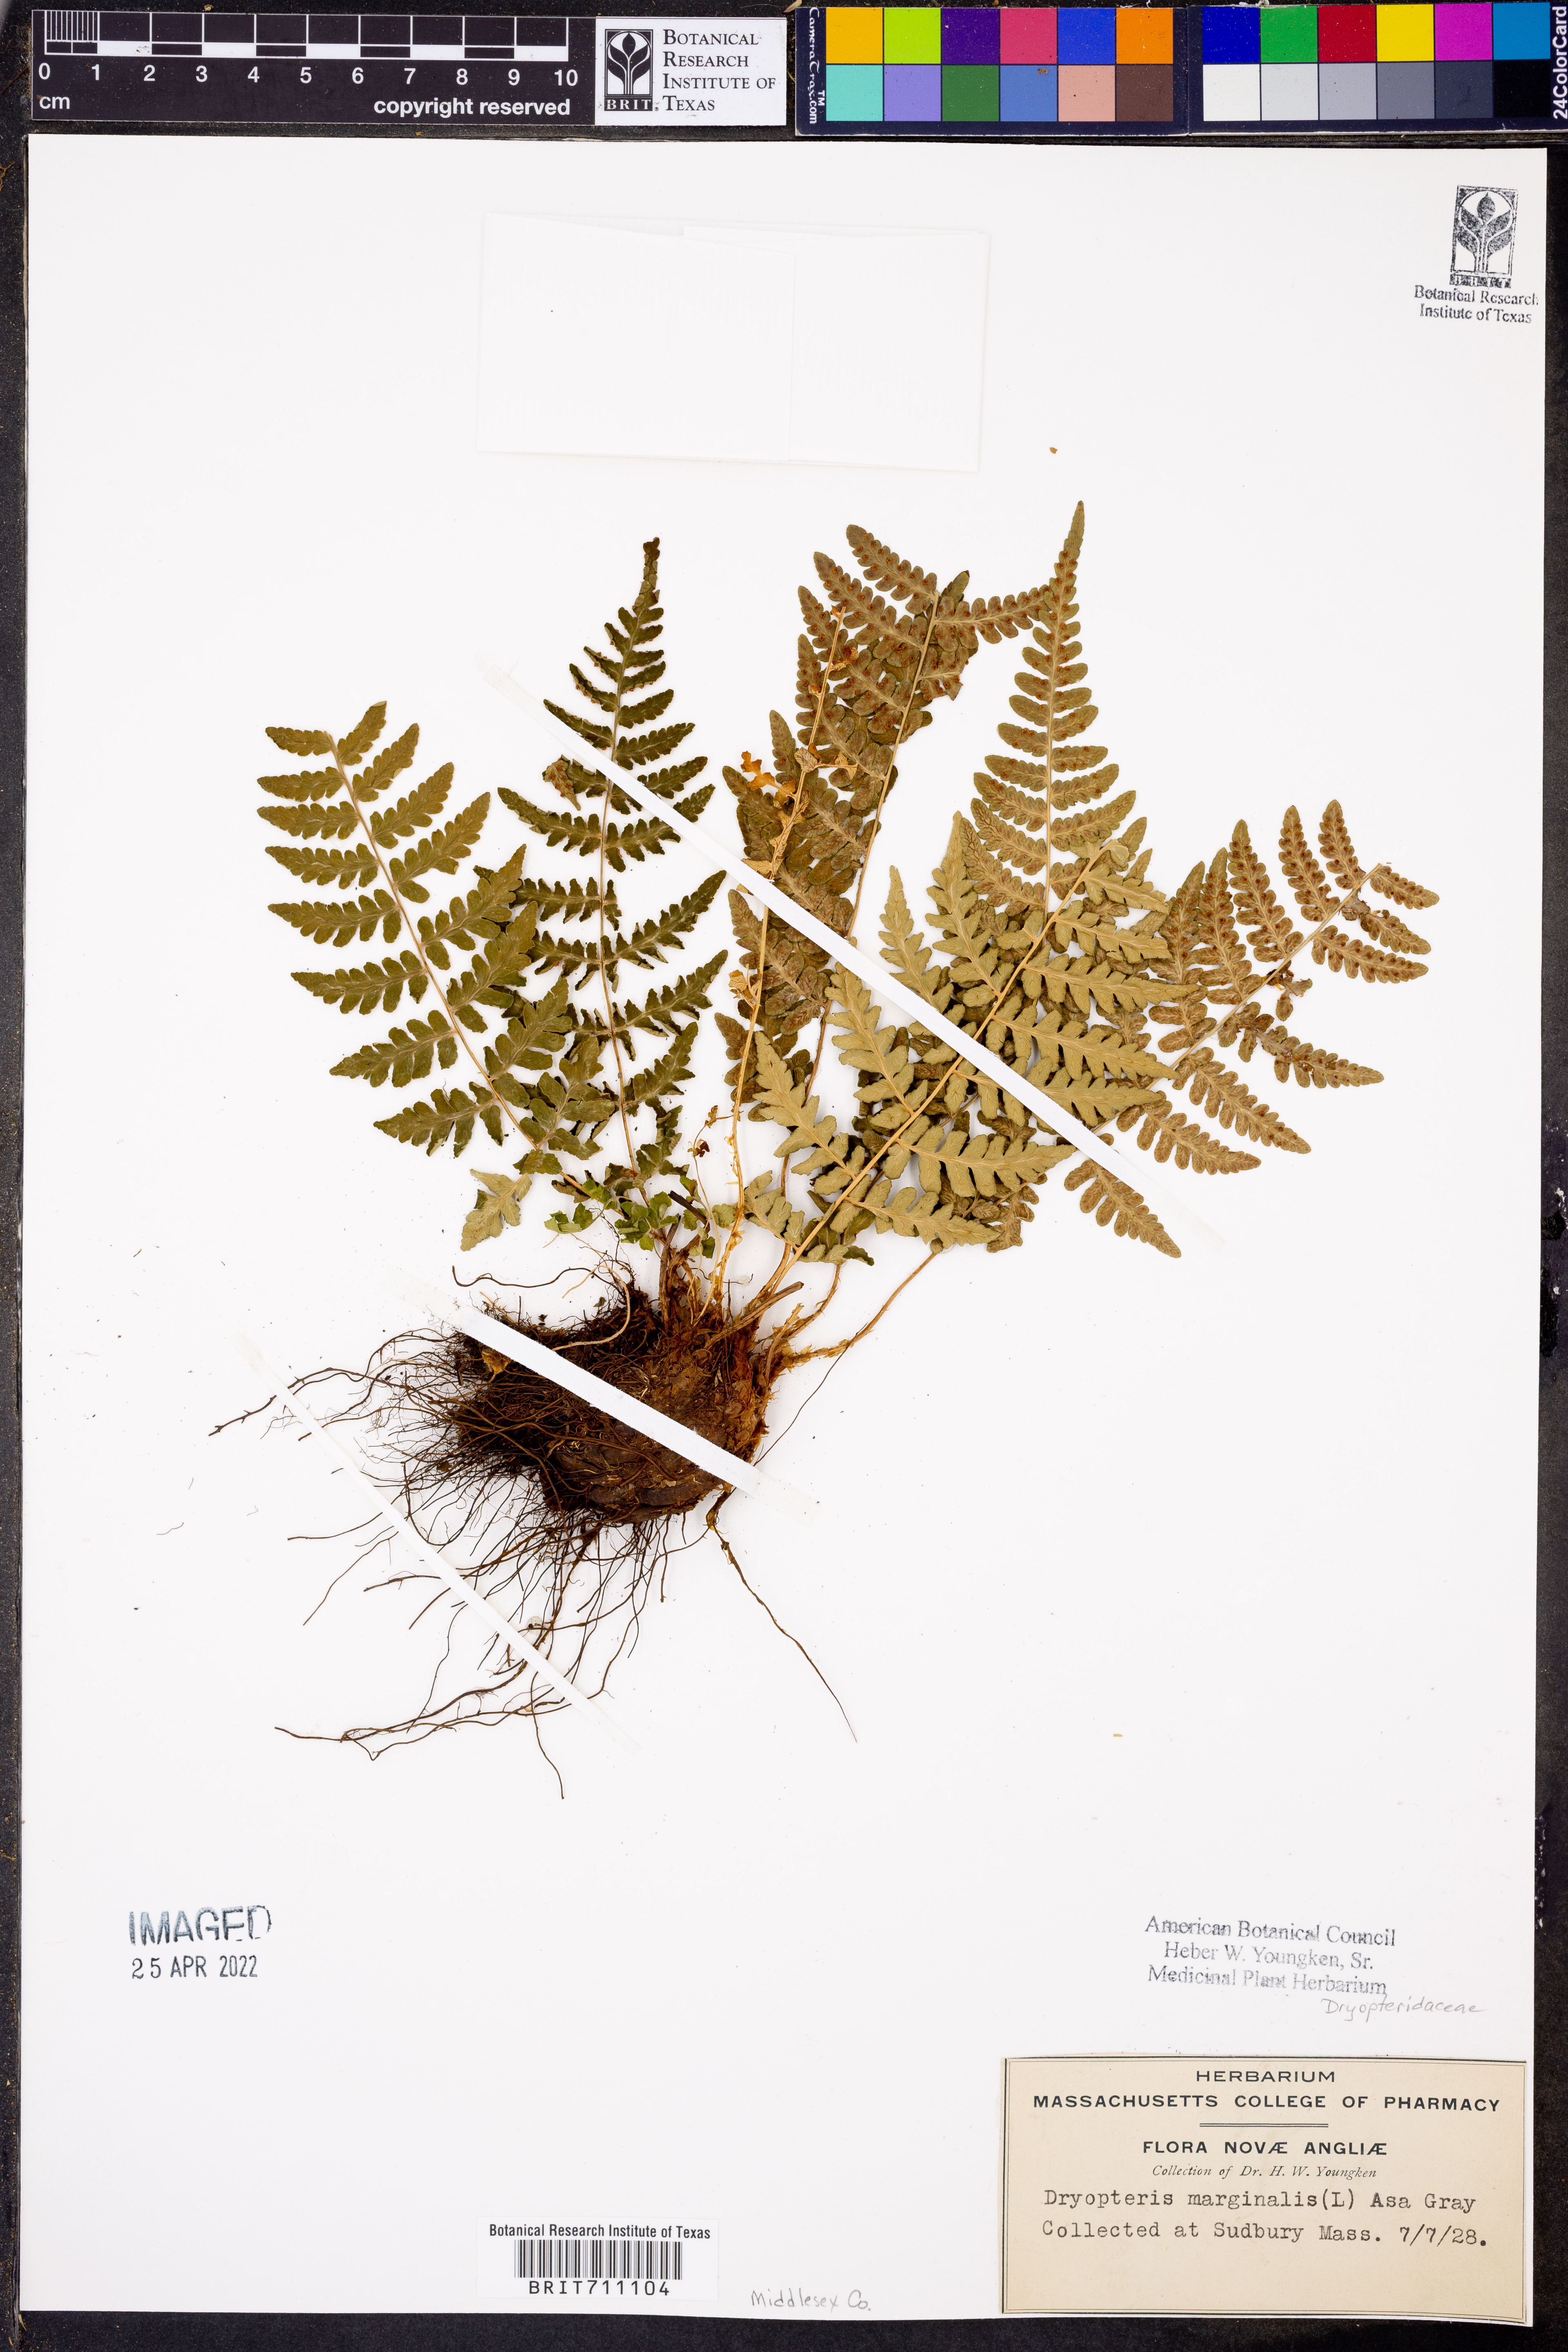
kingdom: Plantae
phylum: Tracheophyta
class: Polypodiopsida
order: Polypodiales
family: Dryopteridaceae
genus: Dryopteris
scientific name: Dryopteris marginalis
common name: Marginal wood fern
